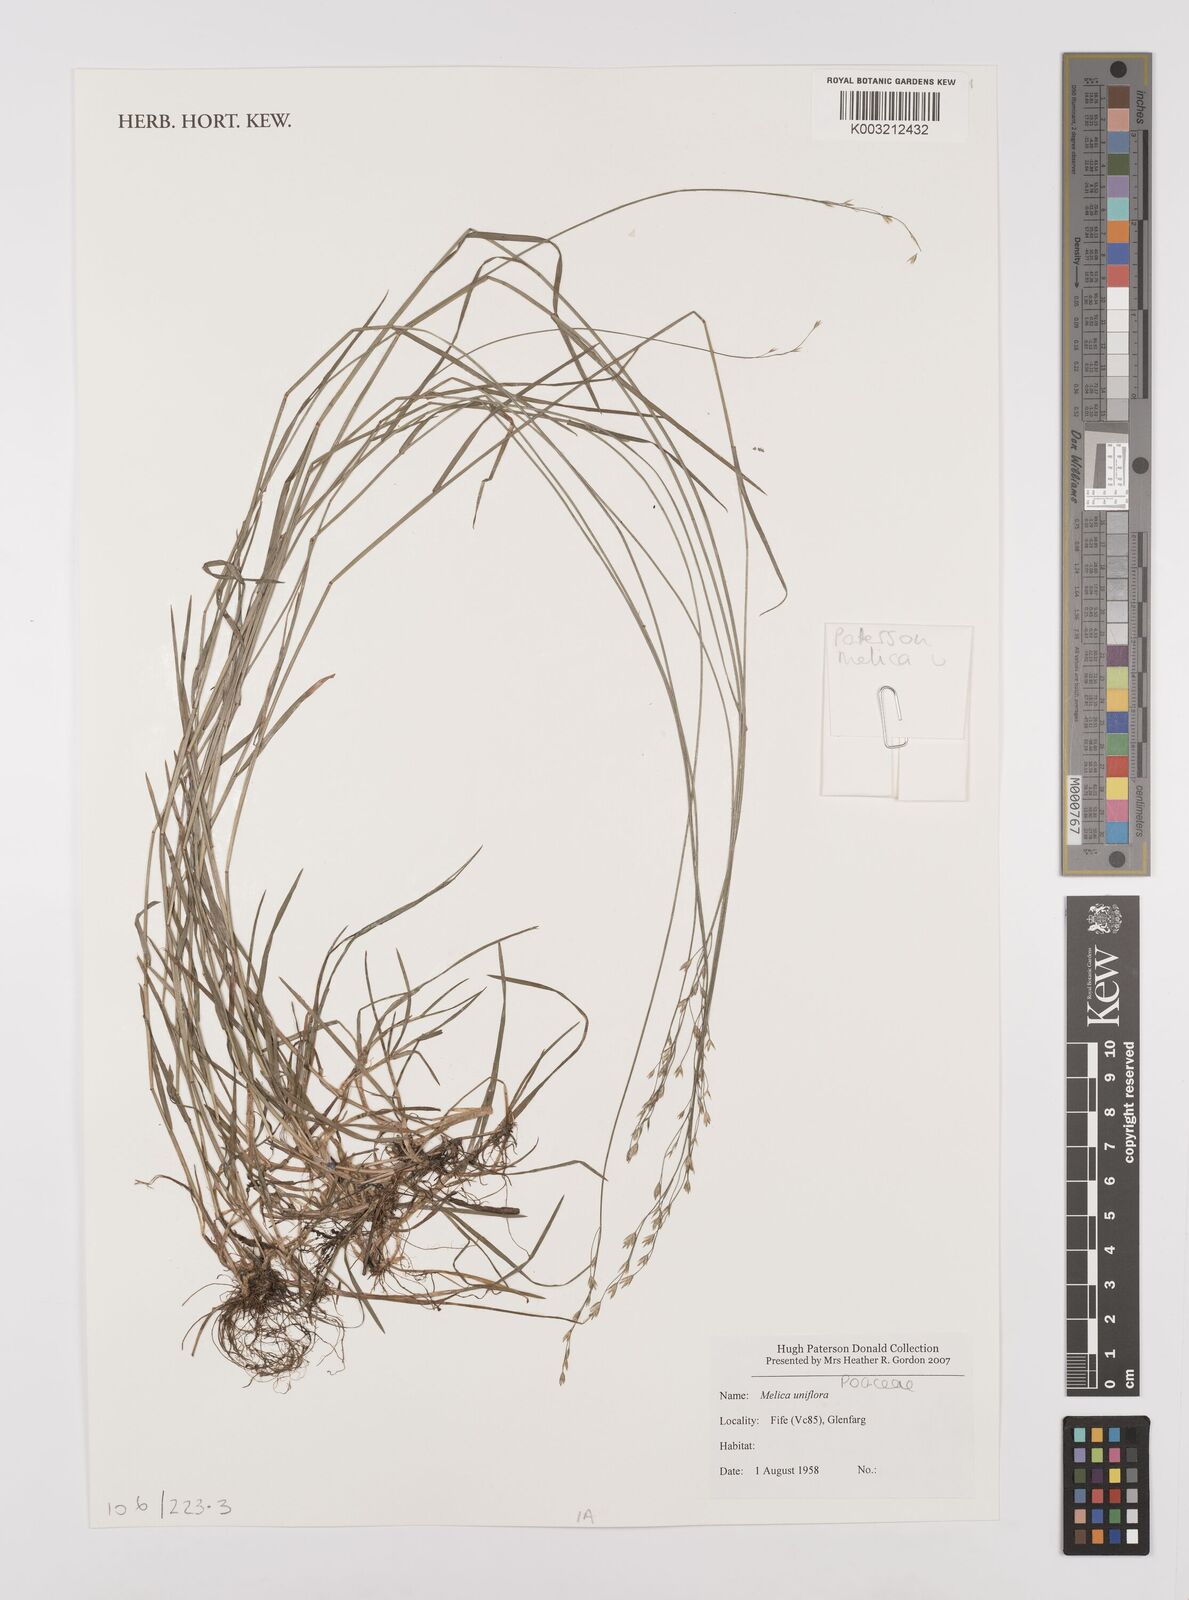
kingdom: Plantae
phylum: Tracheophyta
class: Liliopsida
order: Poales
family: Poaceae
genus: Melica
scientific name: Melica uniflora
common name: Wood melick
